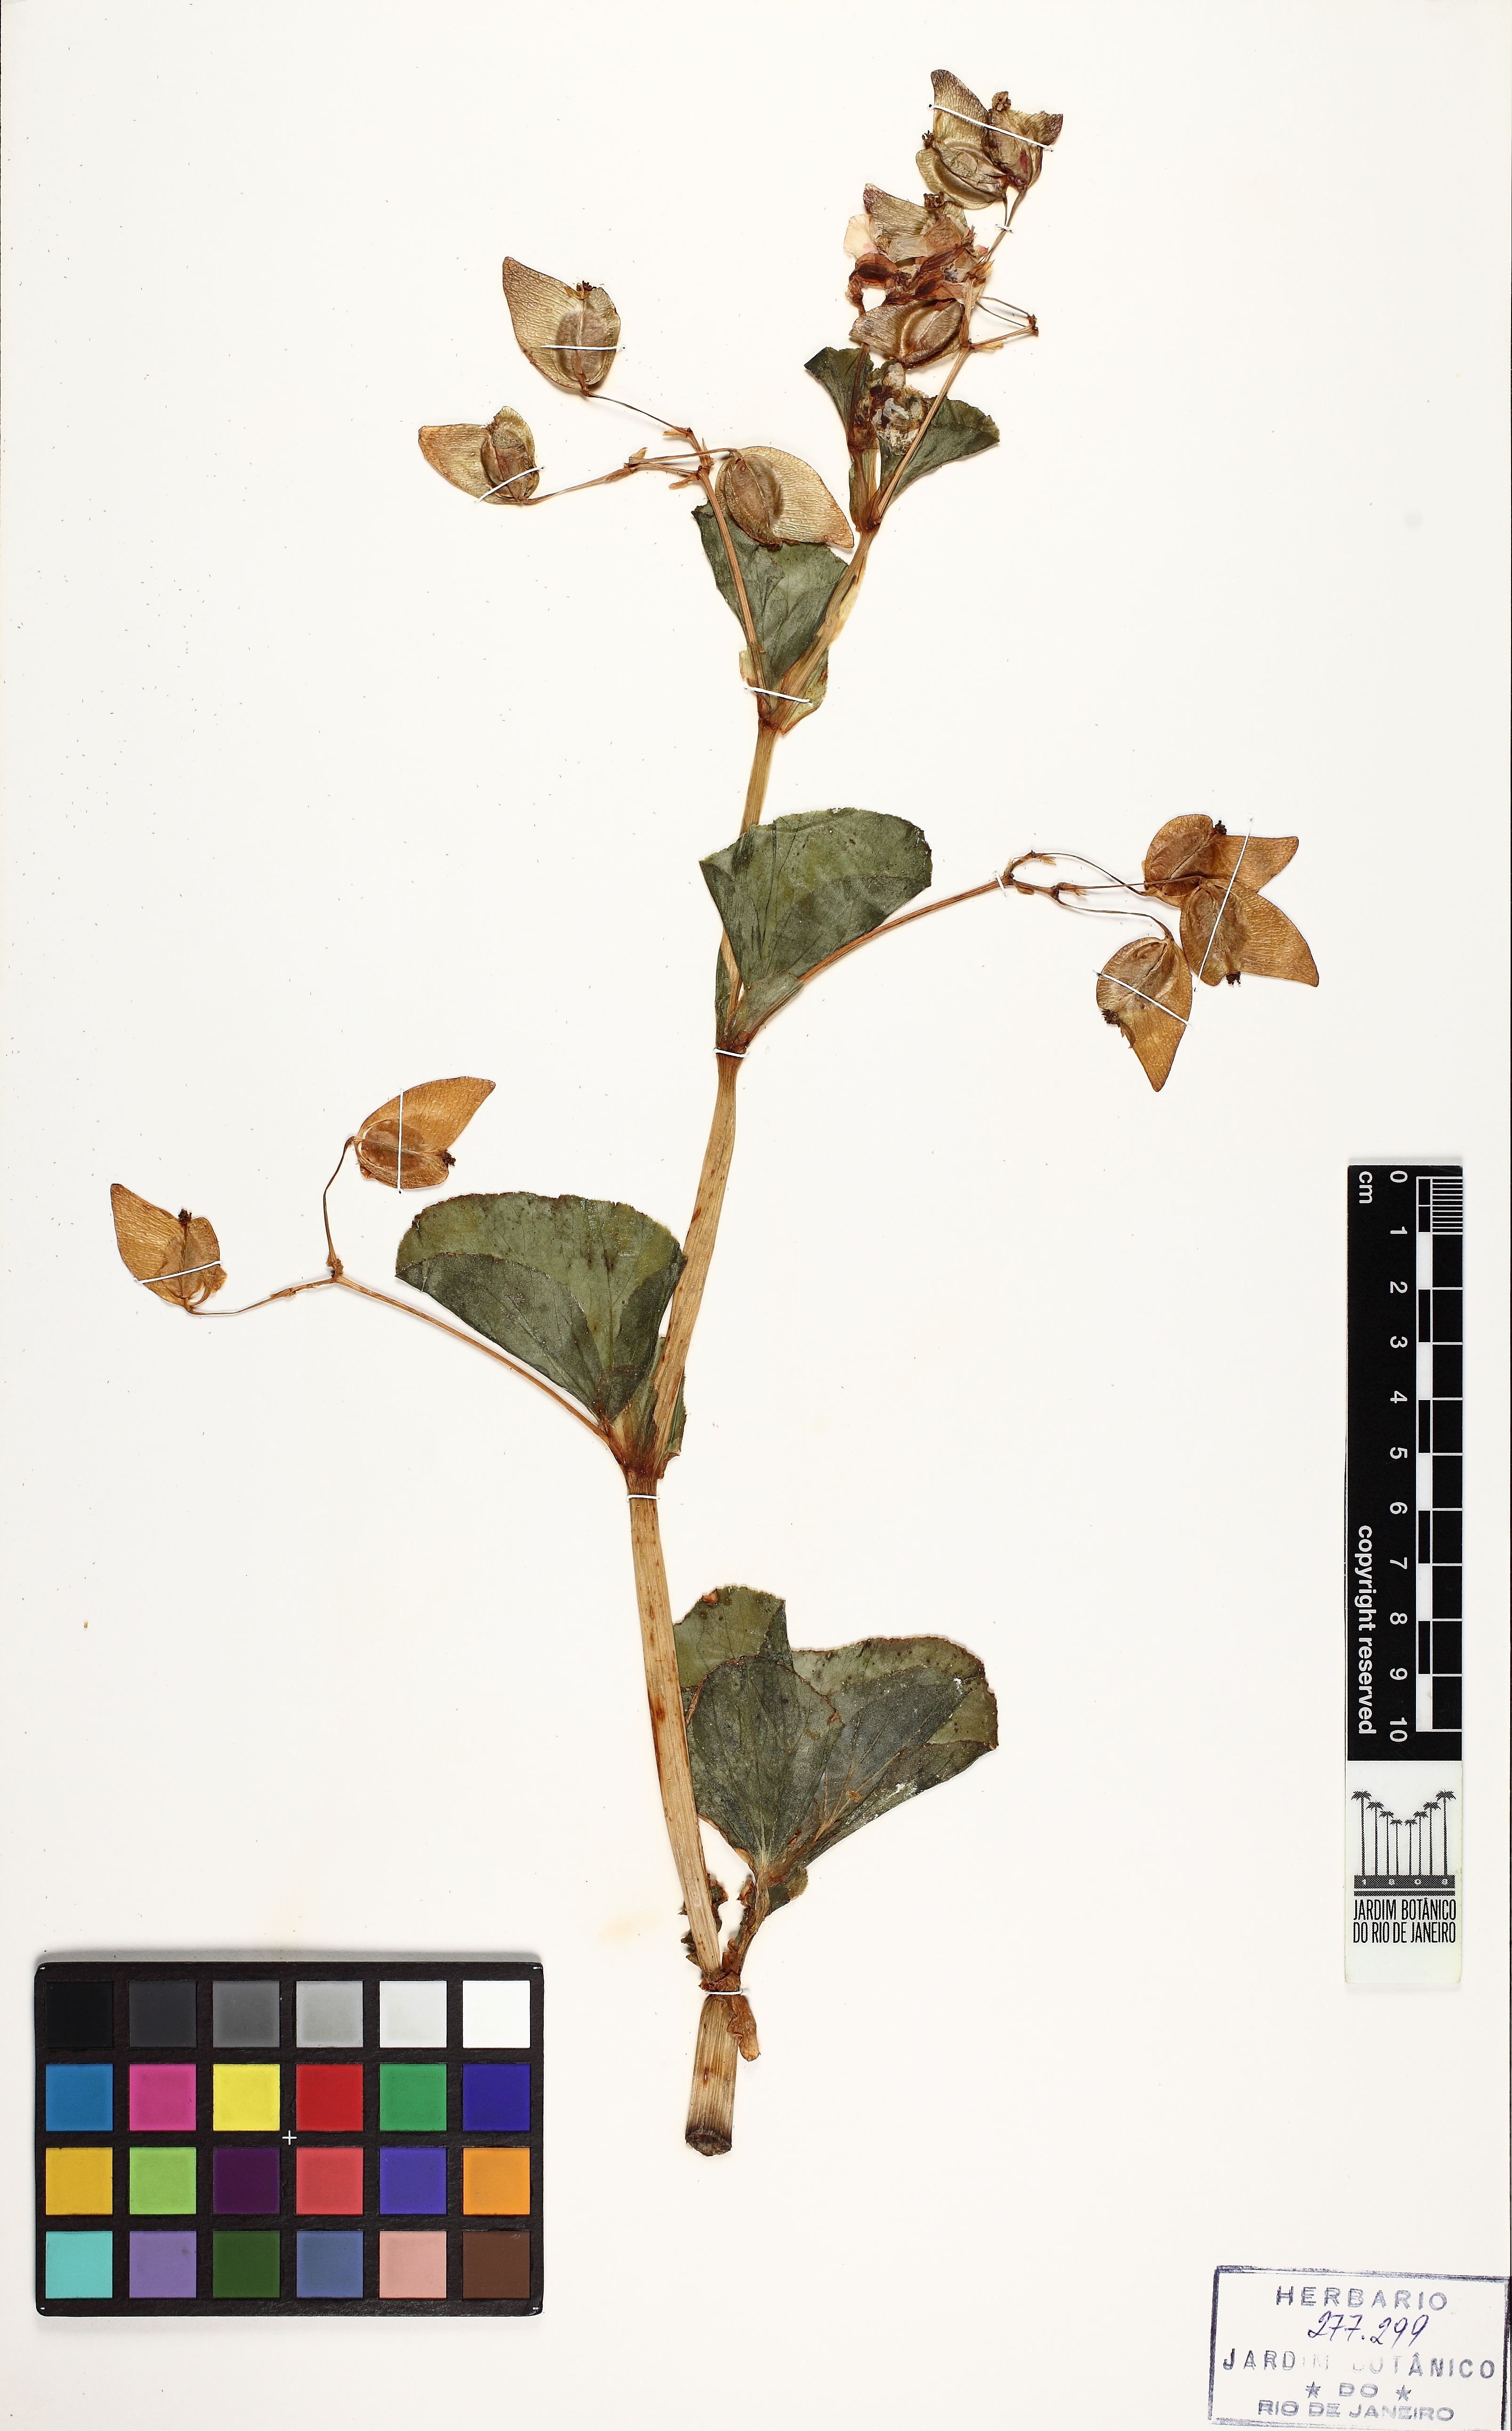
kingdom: Plantae
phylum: Tracheophyta
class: Magnoliopsida
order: Cucurbitales
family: Begoniaceae
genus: Begonia
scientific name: Begonia cucullata
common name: Clubbed begonia
